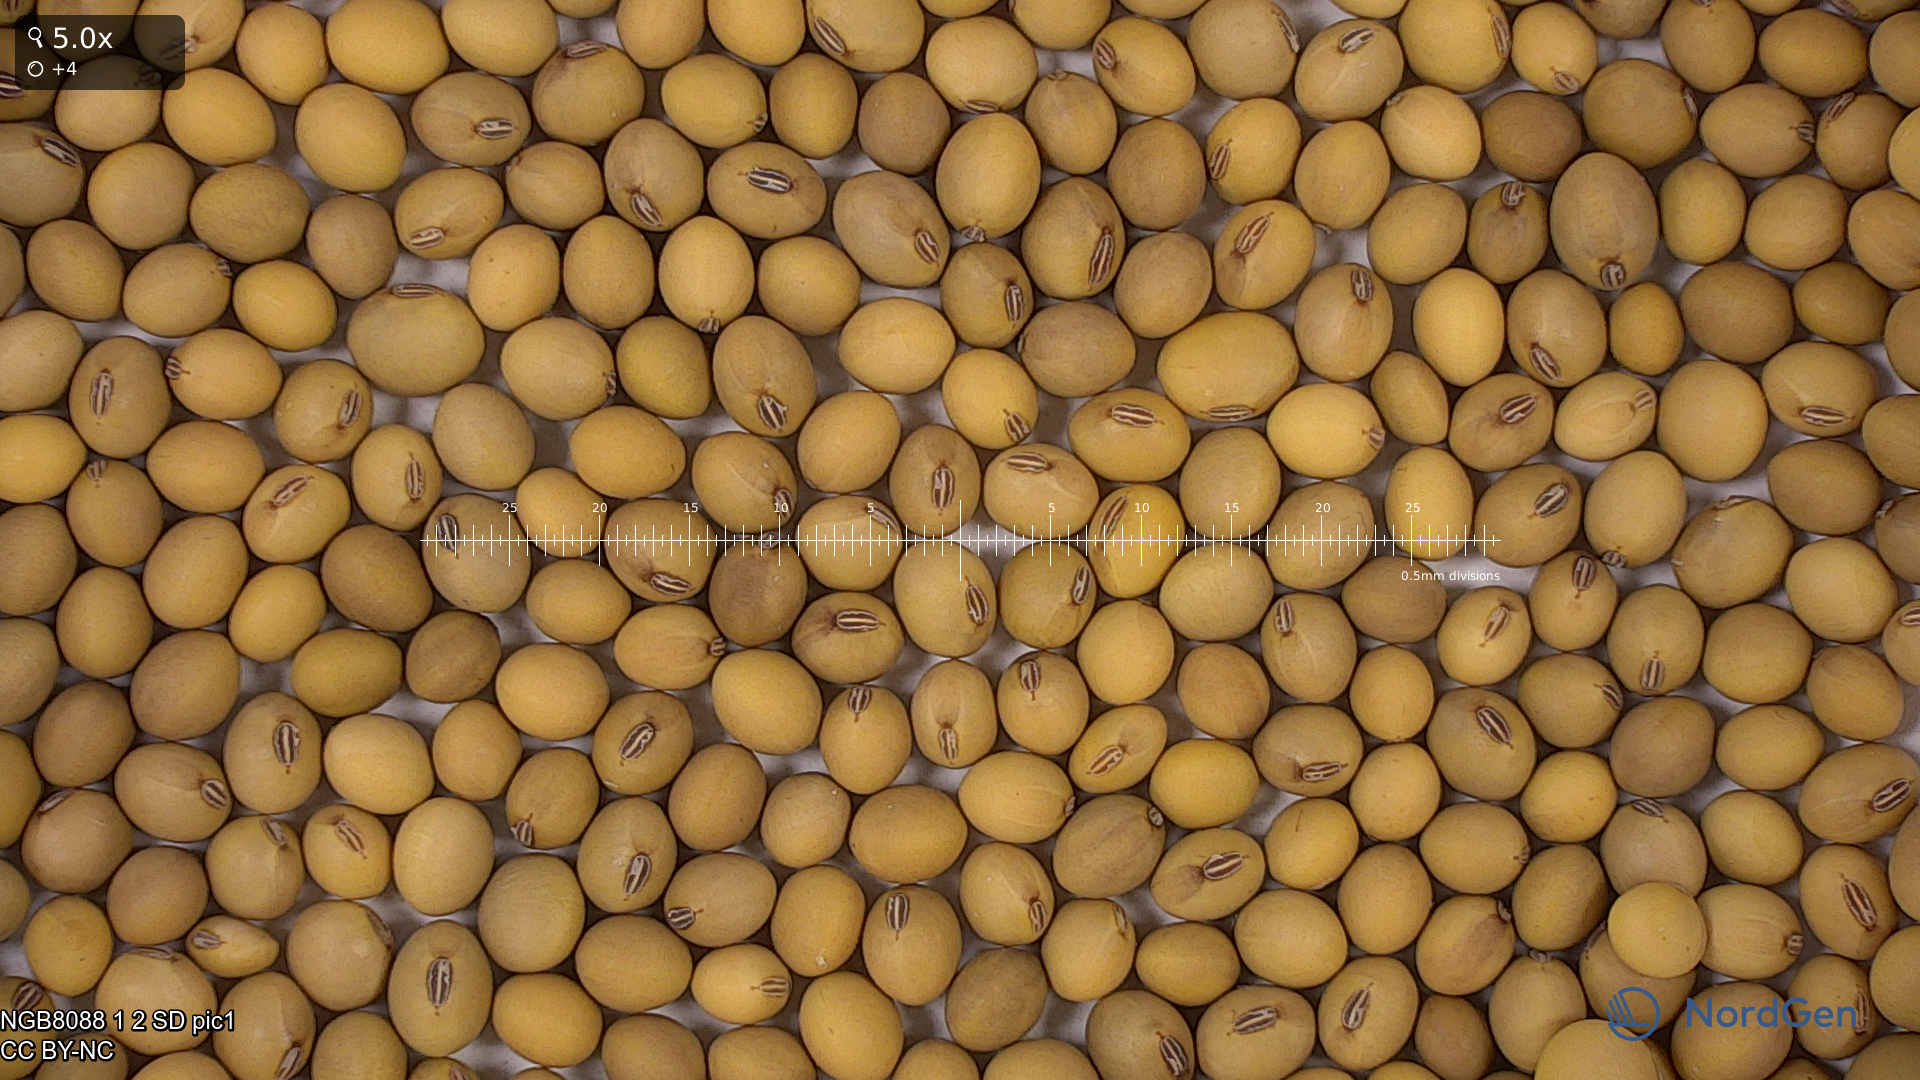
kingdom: Plantae
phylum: Tracheophyta
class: Magnoliopsida
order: Fabales
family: Fabaceae
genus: Glycine
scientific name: Glycine max
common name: Soya-bean
